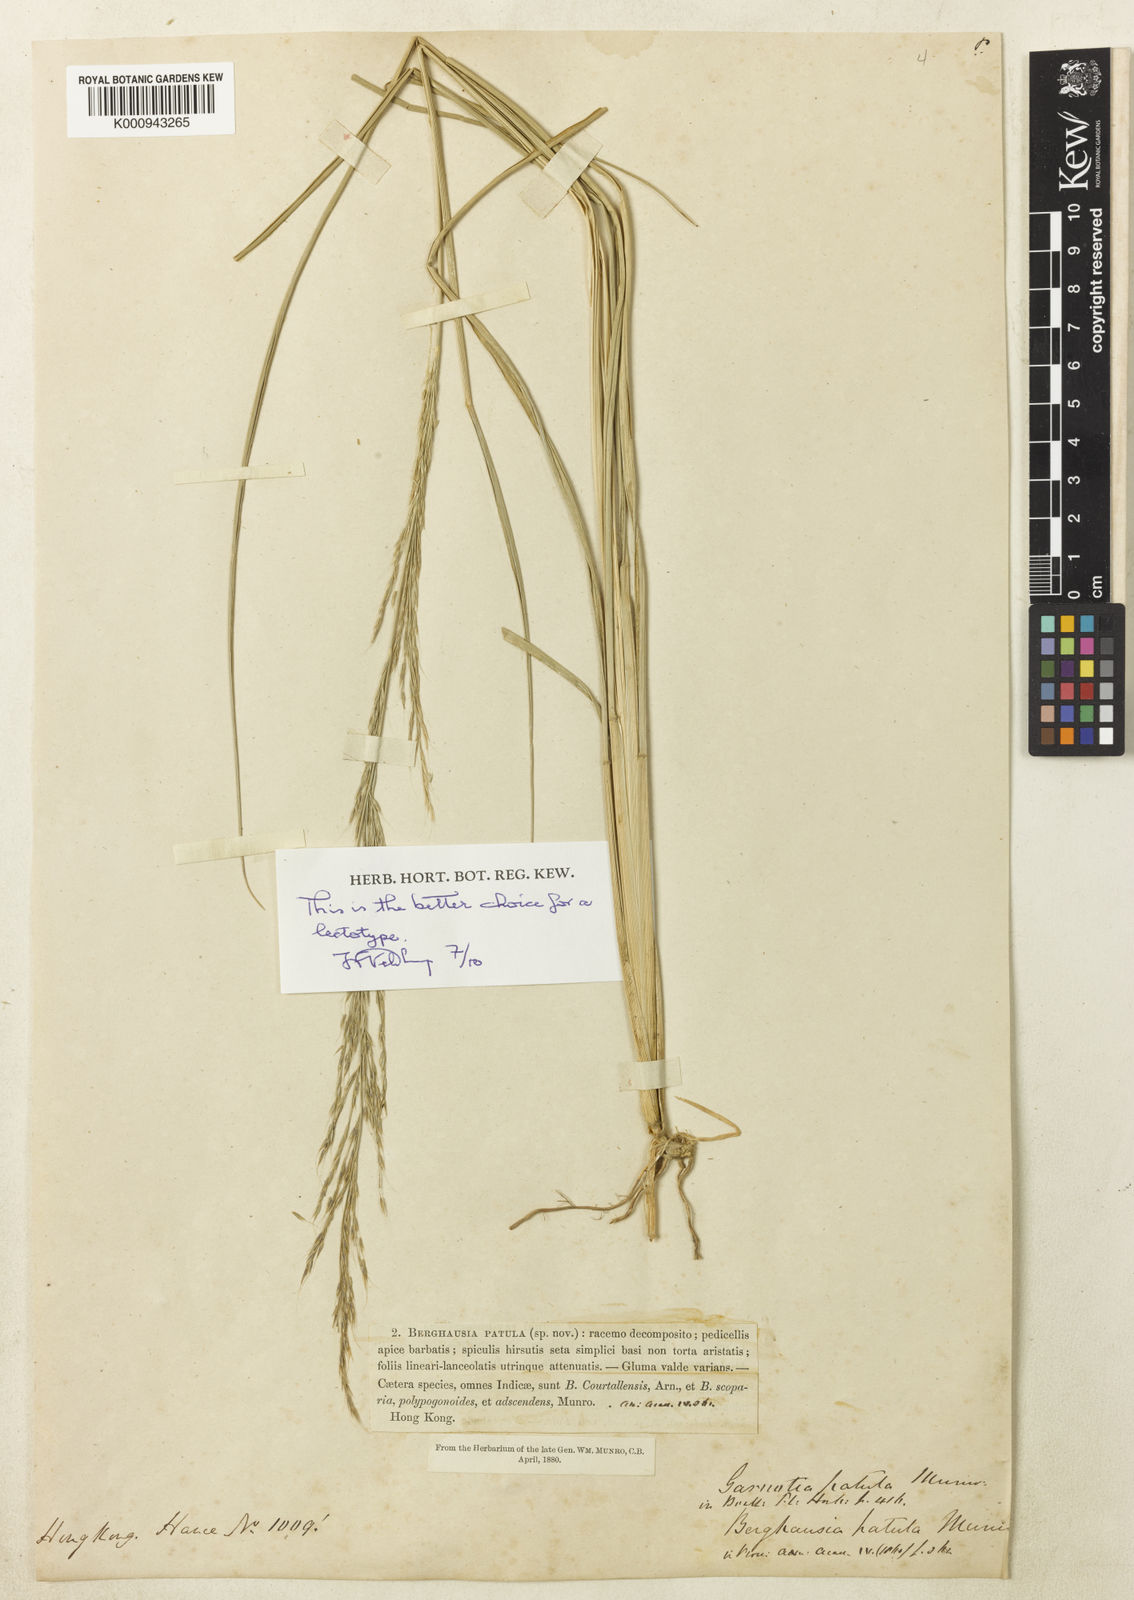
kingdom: Plantae
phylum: Tracheophyta
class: Liliopsida
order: Poales
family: Poaceae
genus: Garnotia
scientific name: Garnotia patula
